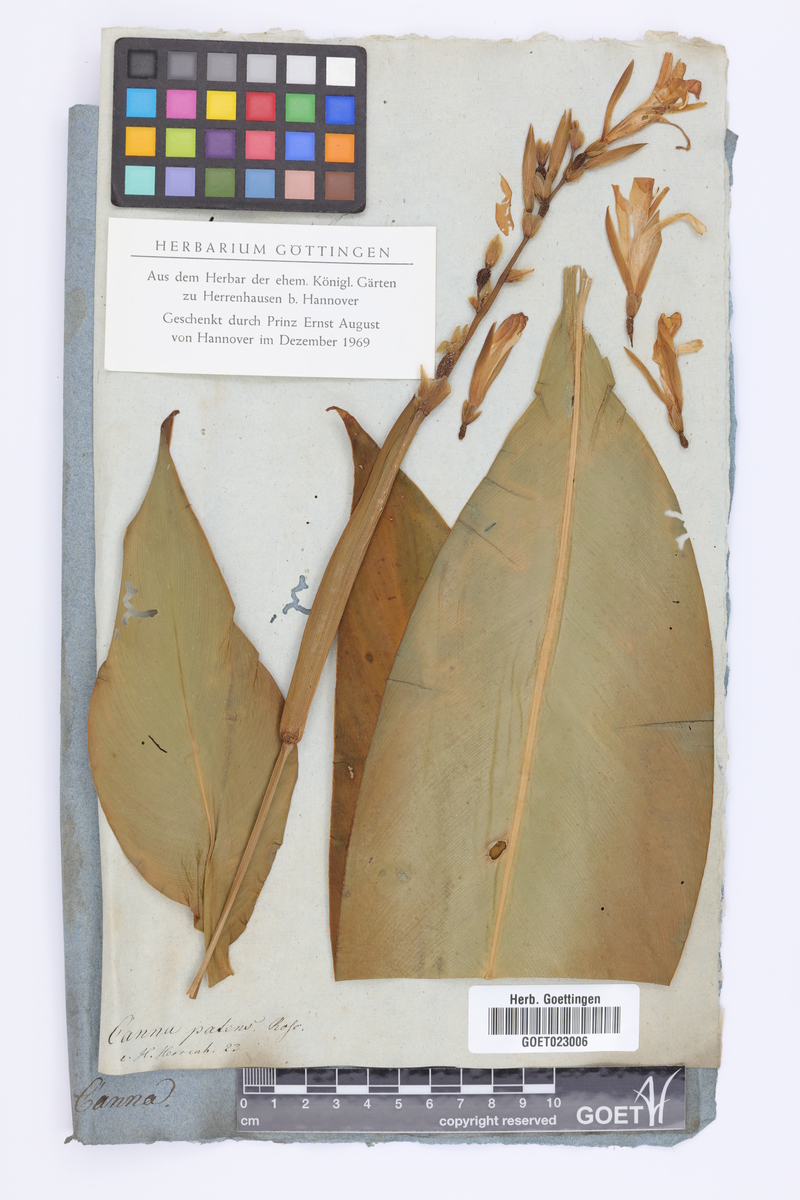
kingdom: Plantae
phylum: Tracheophyta
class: Liliopsida
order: Zingiberales
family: Cannaceae
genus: Canna
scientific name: Canna indica
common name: Indian shot
